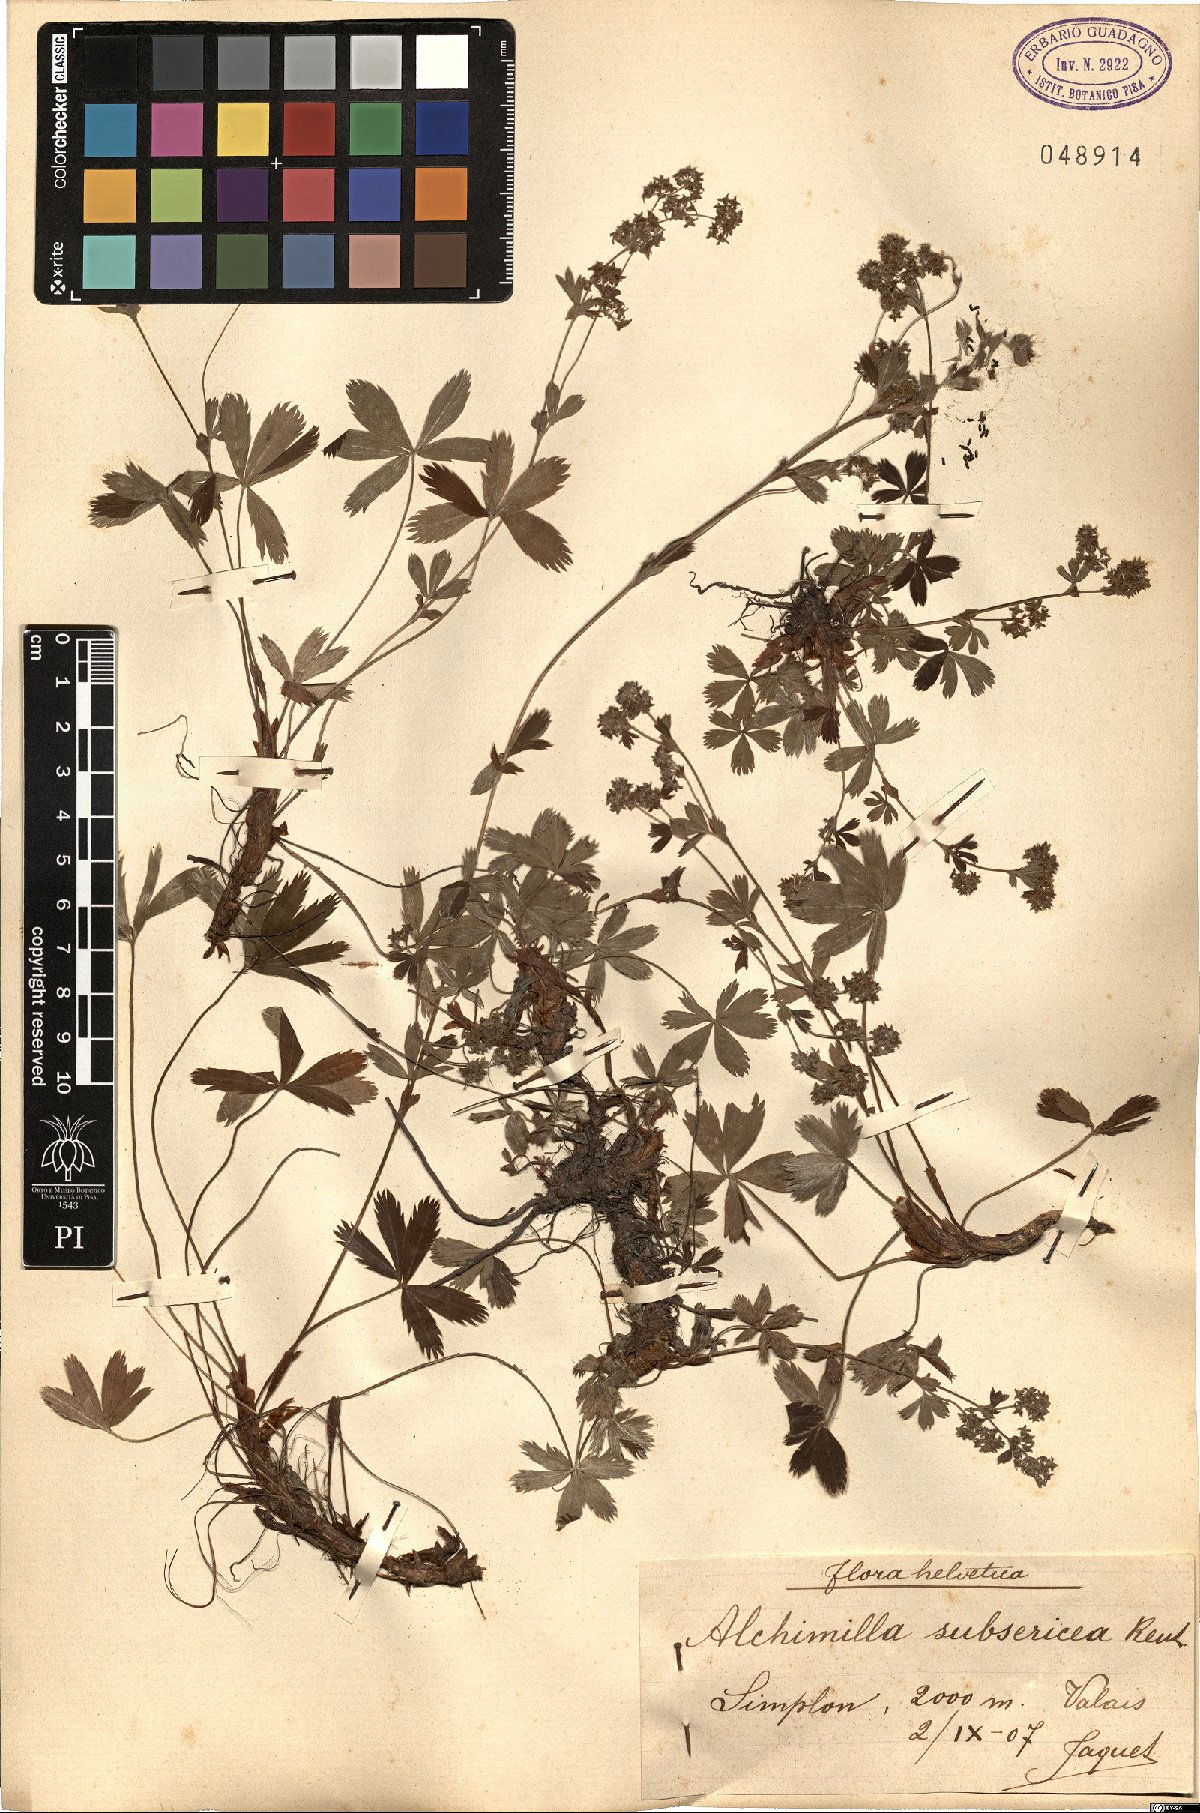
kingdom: Plantae
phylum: Tracheophyta
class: Magnoliopsida
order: Rosales
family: Rosaceae
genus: Alchemilla
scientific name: Alchemilla subsericea
